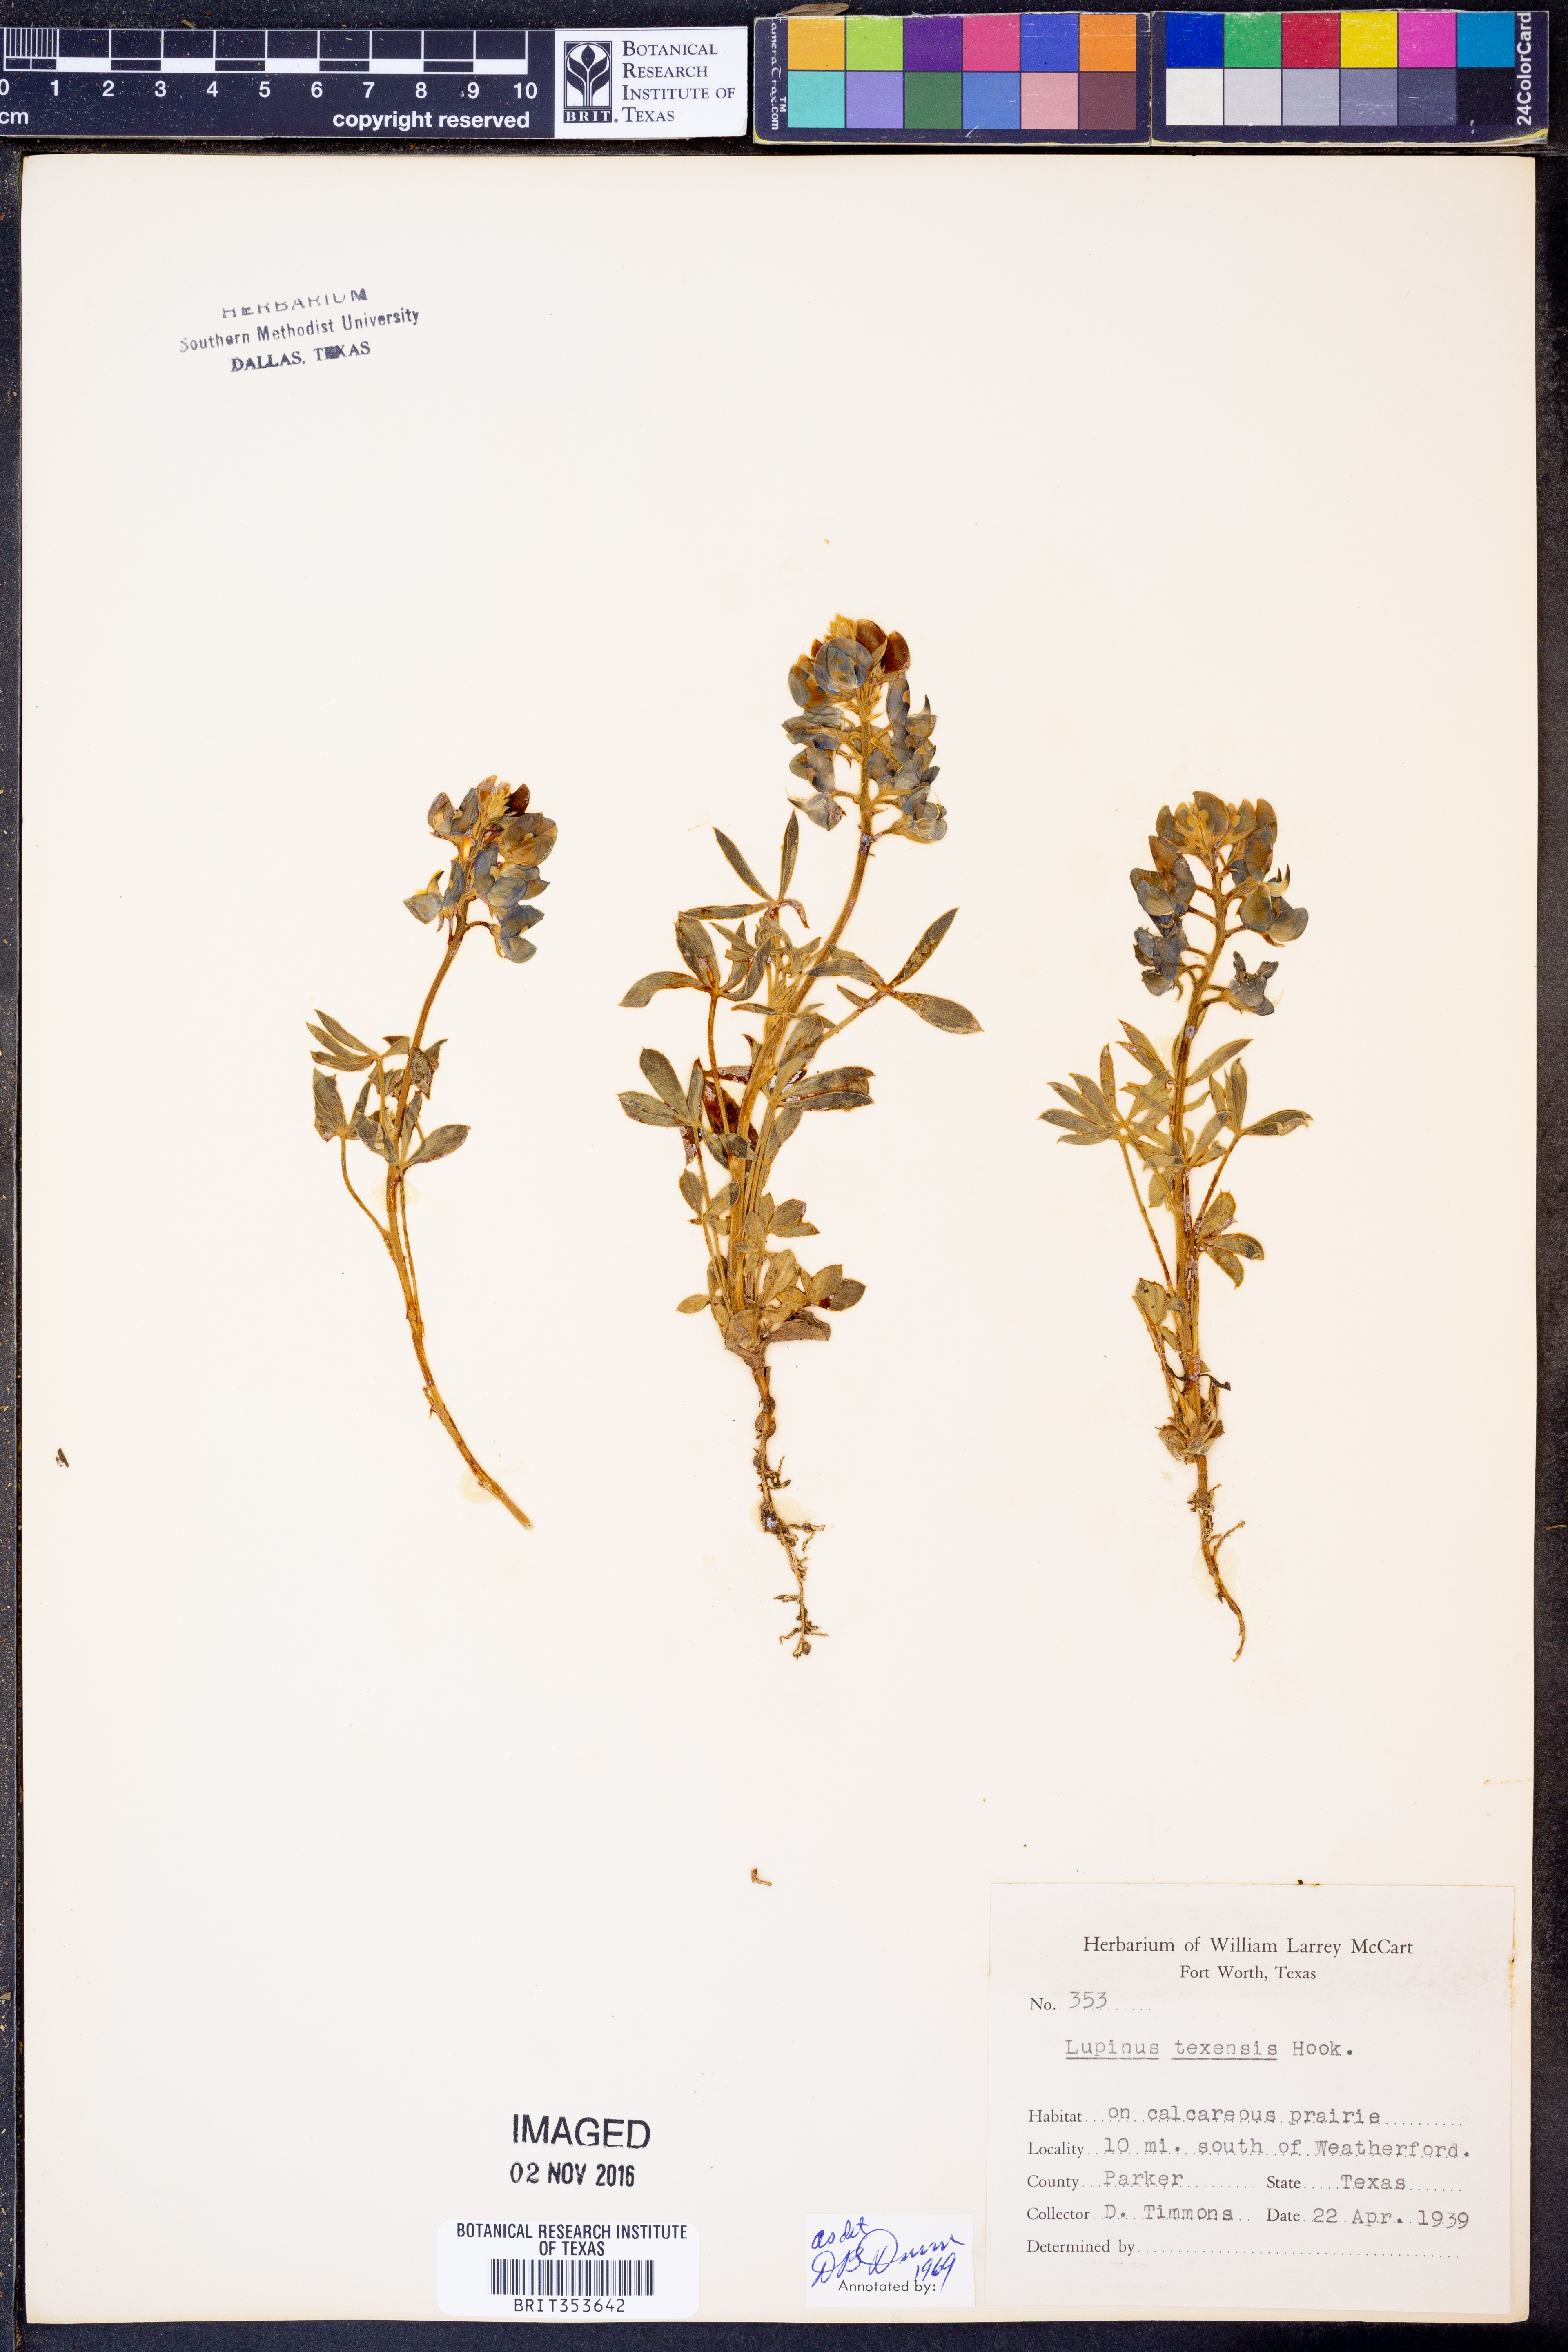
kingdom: Plantae
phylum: Tracheophyta
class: Magnoliopsida
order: Fabales
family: Fabaceae
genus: Lupinus
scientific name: Lupinus texensis
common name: Texas bluebonnet
